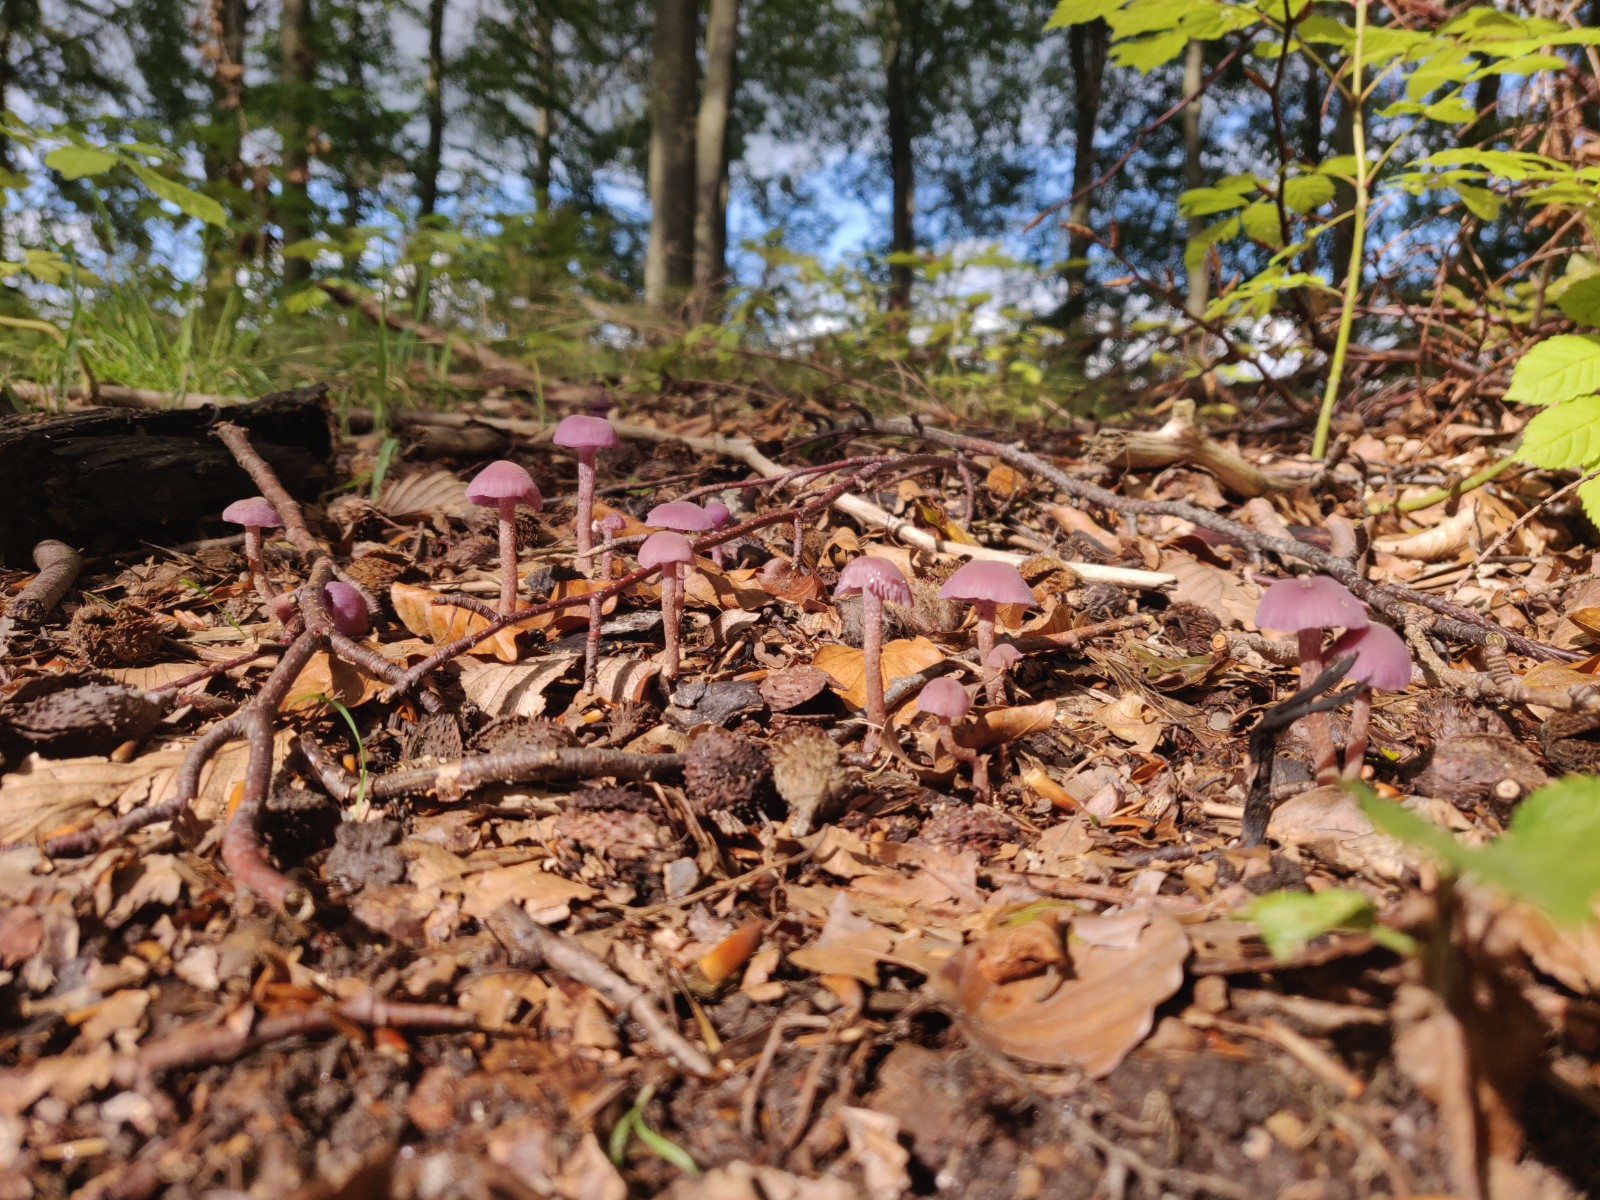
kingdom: Fungi
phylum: Basidiomycota
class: Agaricomycetes
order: Agaricales
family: Hydnangiaceae
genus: Laccaria
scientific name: Laccaria amethystina
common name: violet ametysthat
